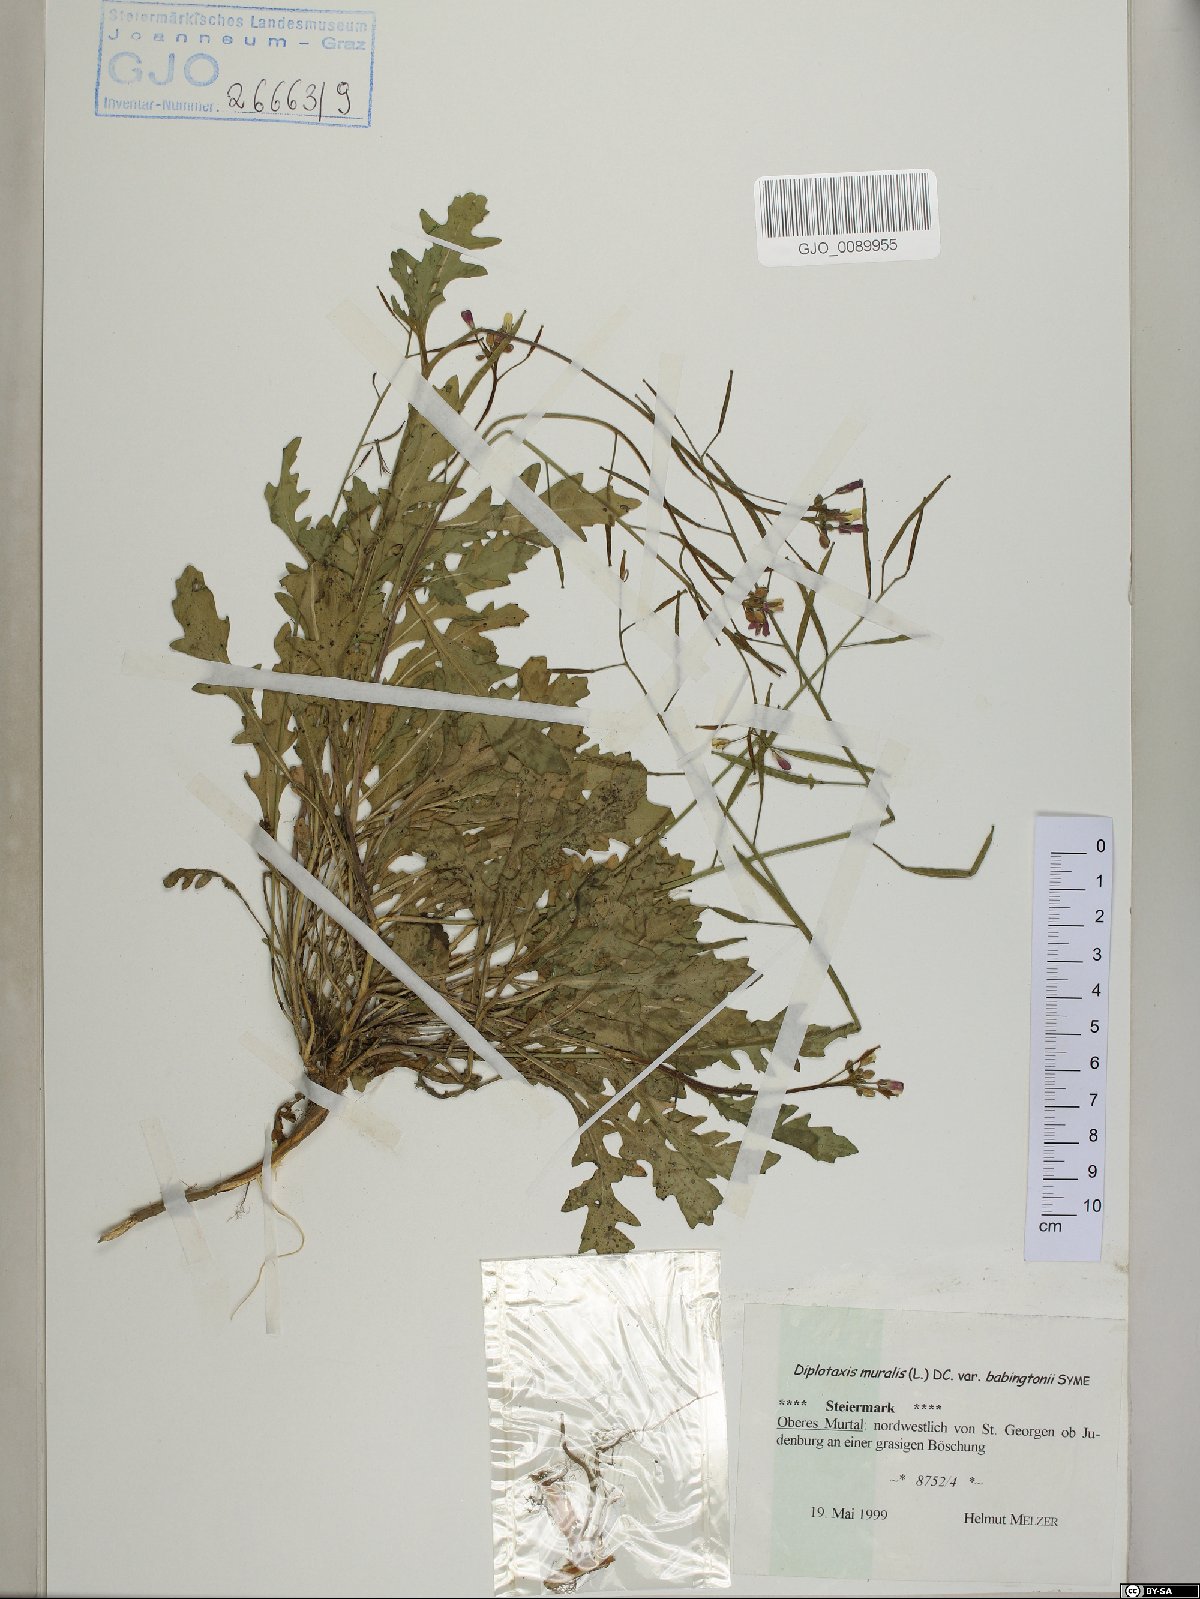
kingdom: Plantae
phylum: Tracheophyta
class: Magnoliopsida
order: Brassicales
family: Brassicaceae
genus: Diplotaxis
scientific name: Diplotaxis muralis
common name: Annual wall-rocket
